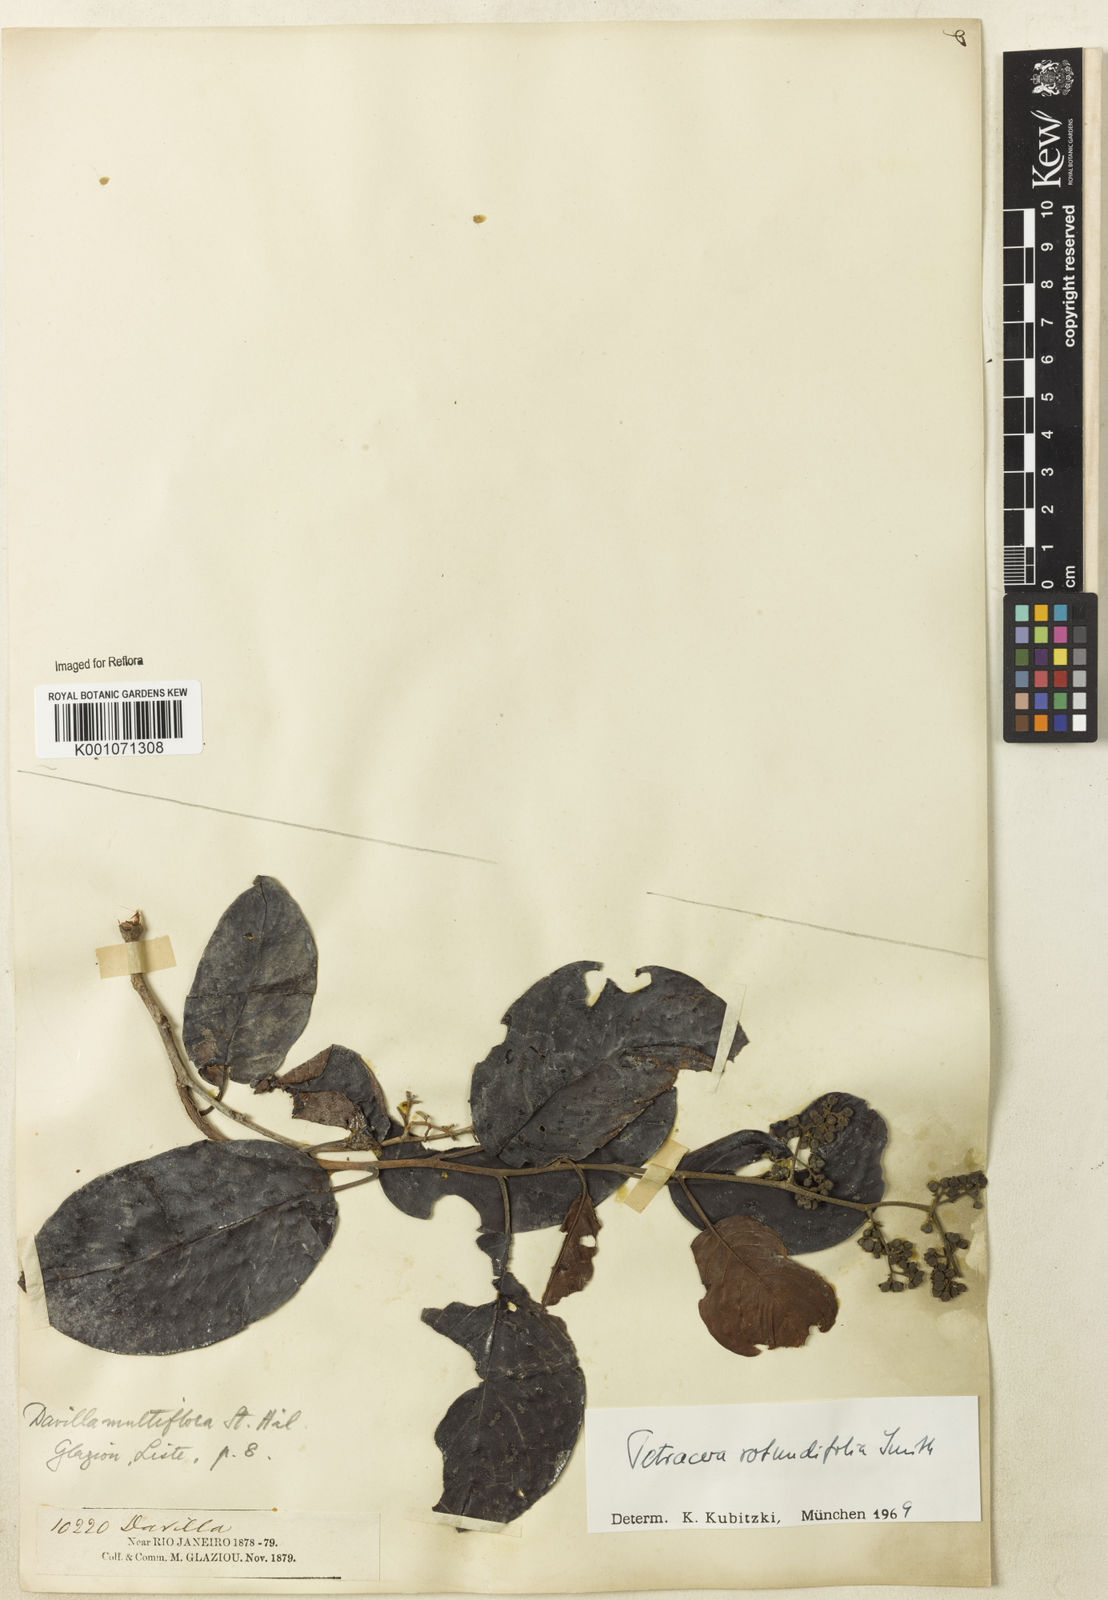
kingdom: Plantae
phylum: Tracheophyta
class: Magnoliopsida
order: Dilleniales
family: Dilleniaceae
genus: Tetracera
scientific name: Tetracera rotundifolia
